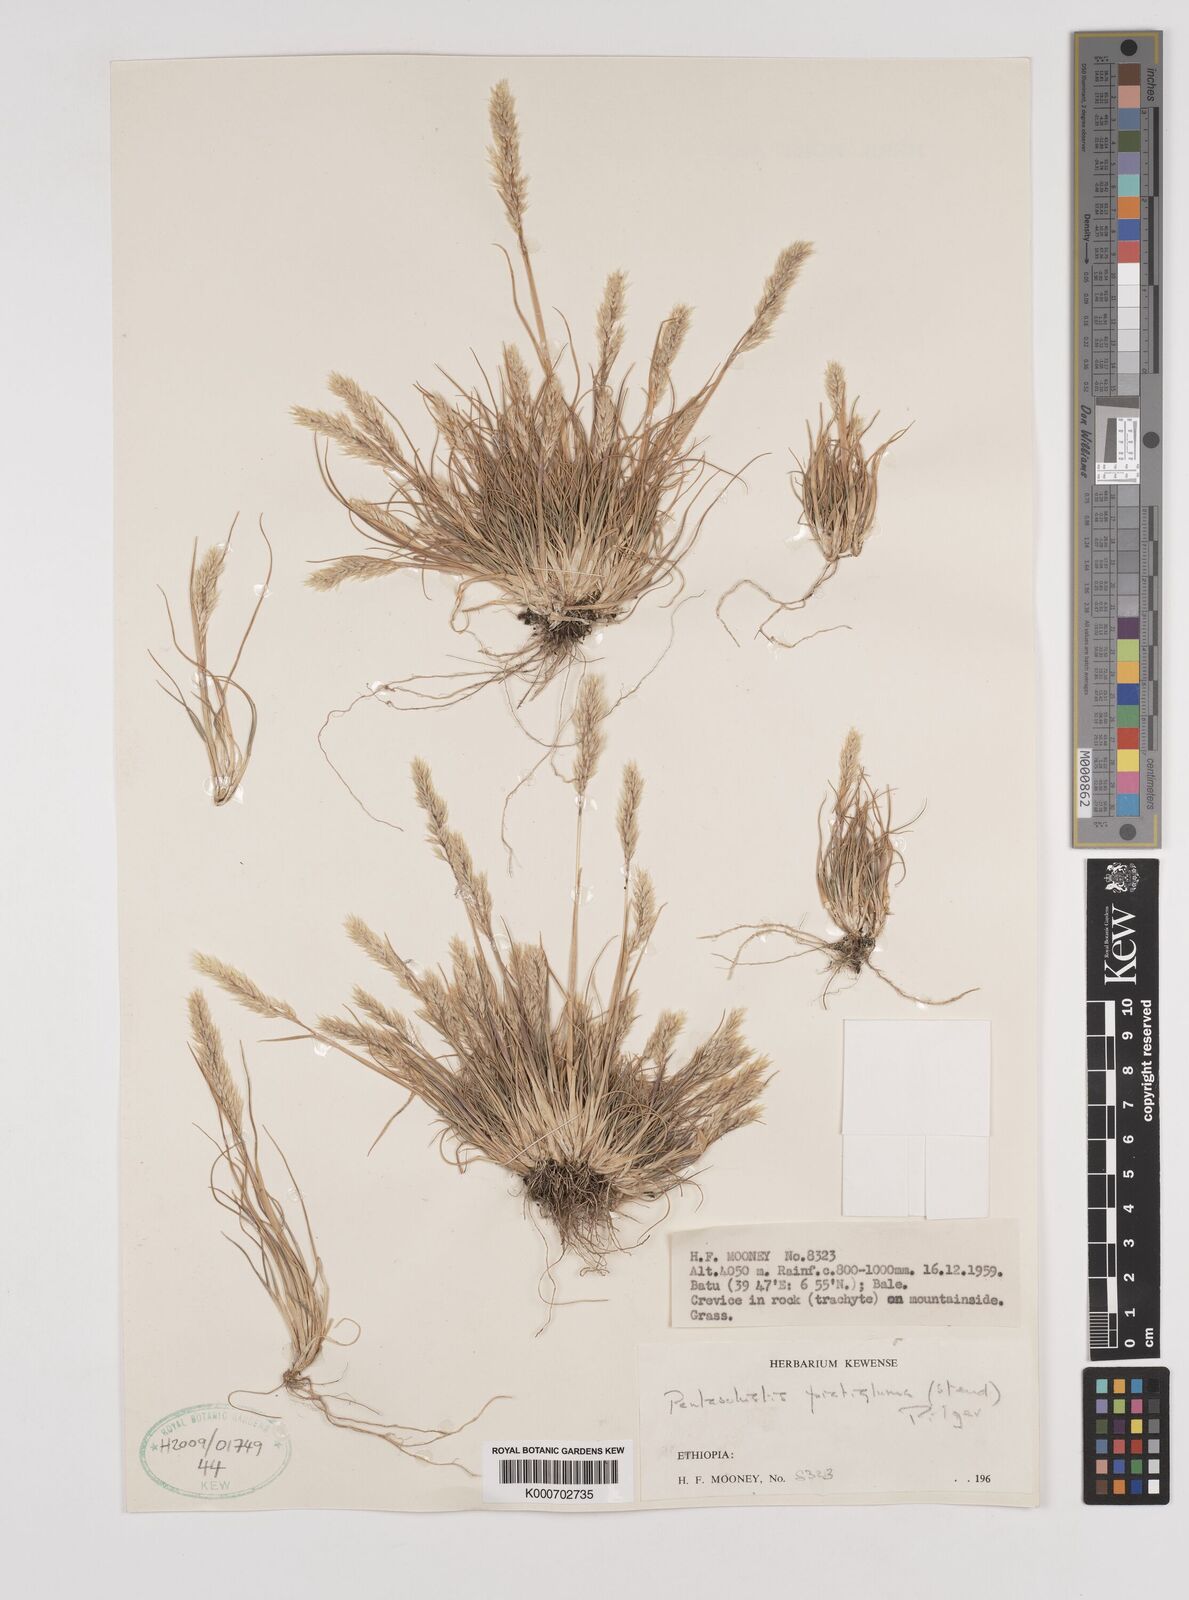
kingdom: Plantae
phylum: Tracheophyta
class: Liliopsida
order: Poales
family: Poaceae
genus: Pentameris
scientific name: Pentameris pictigluma
